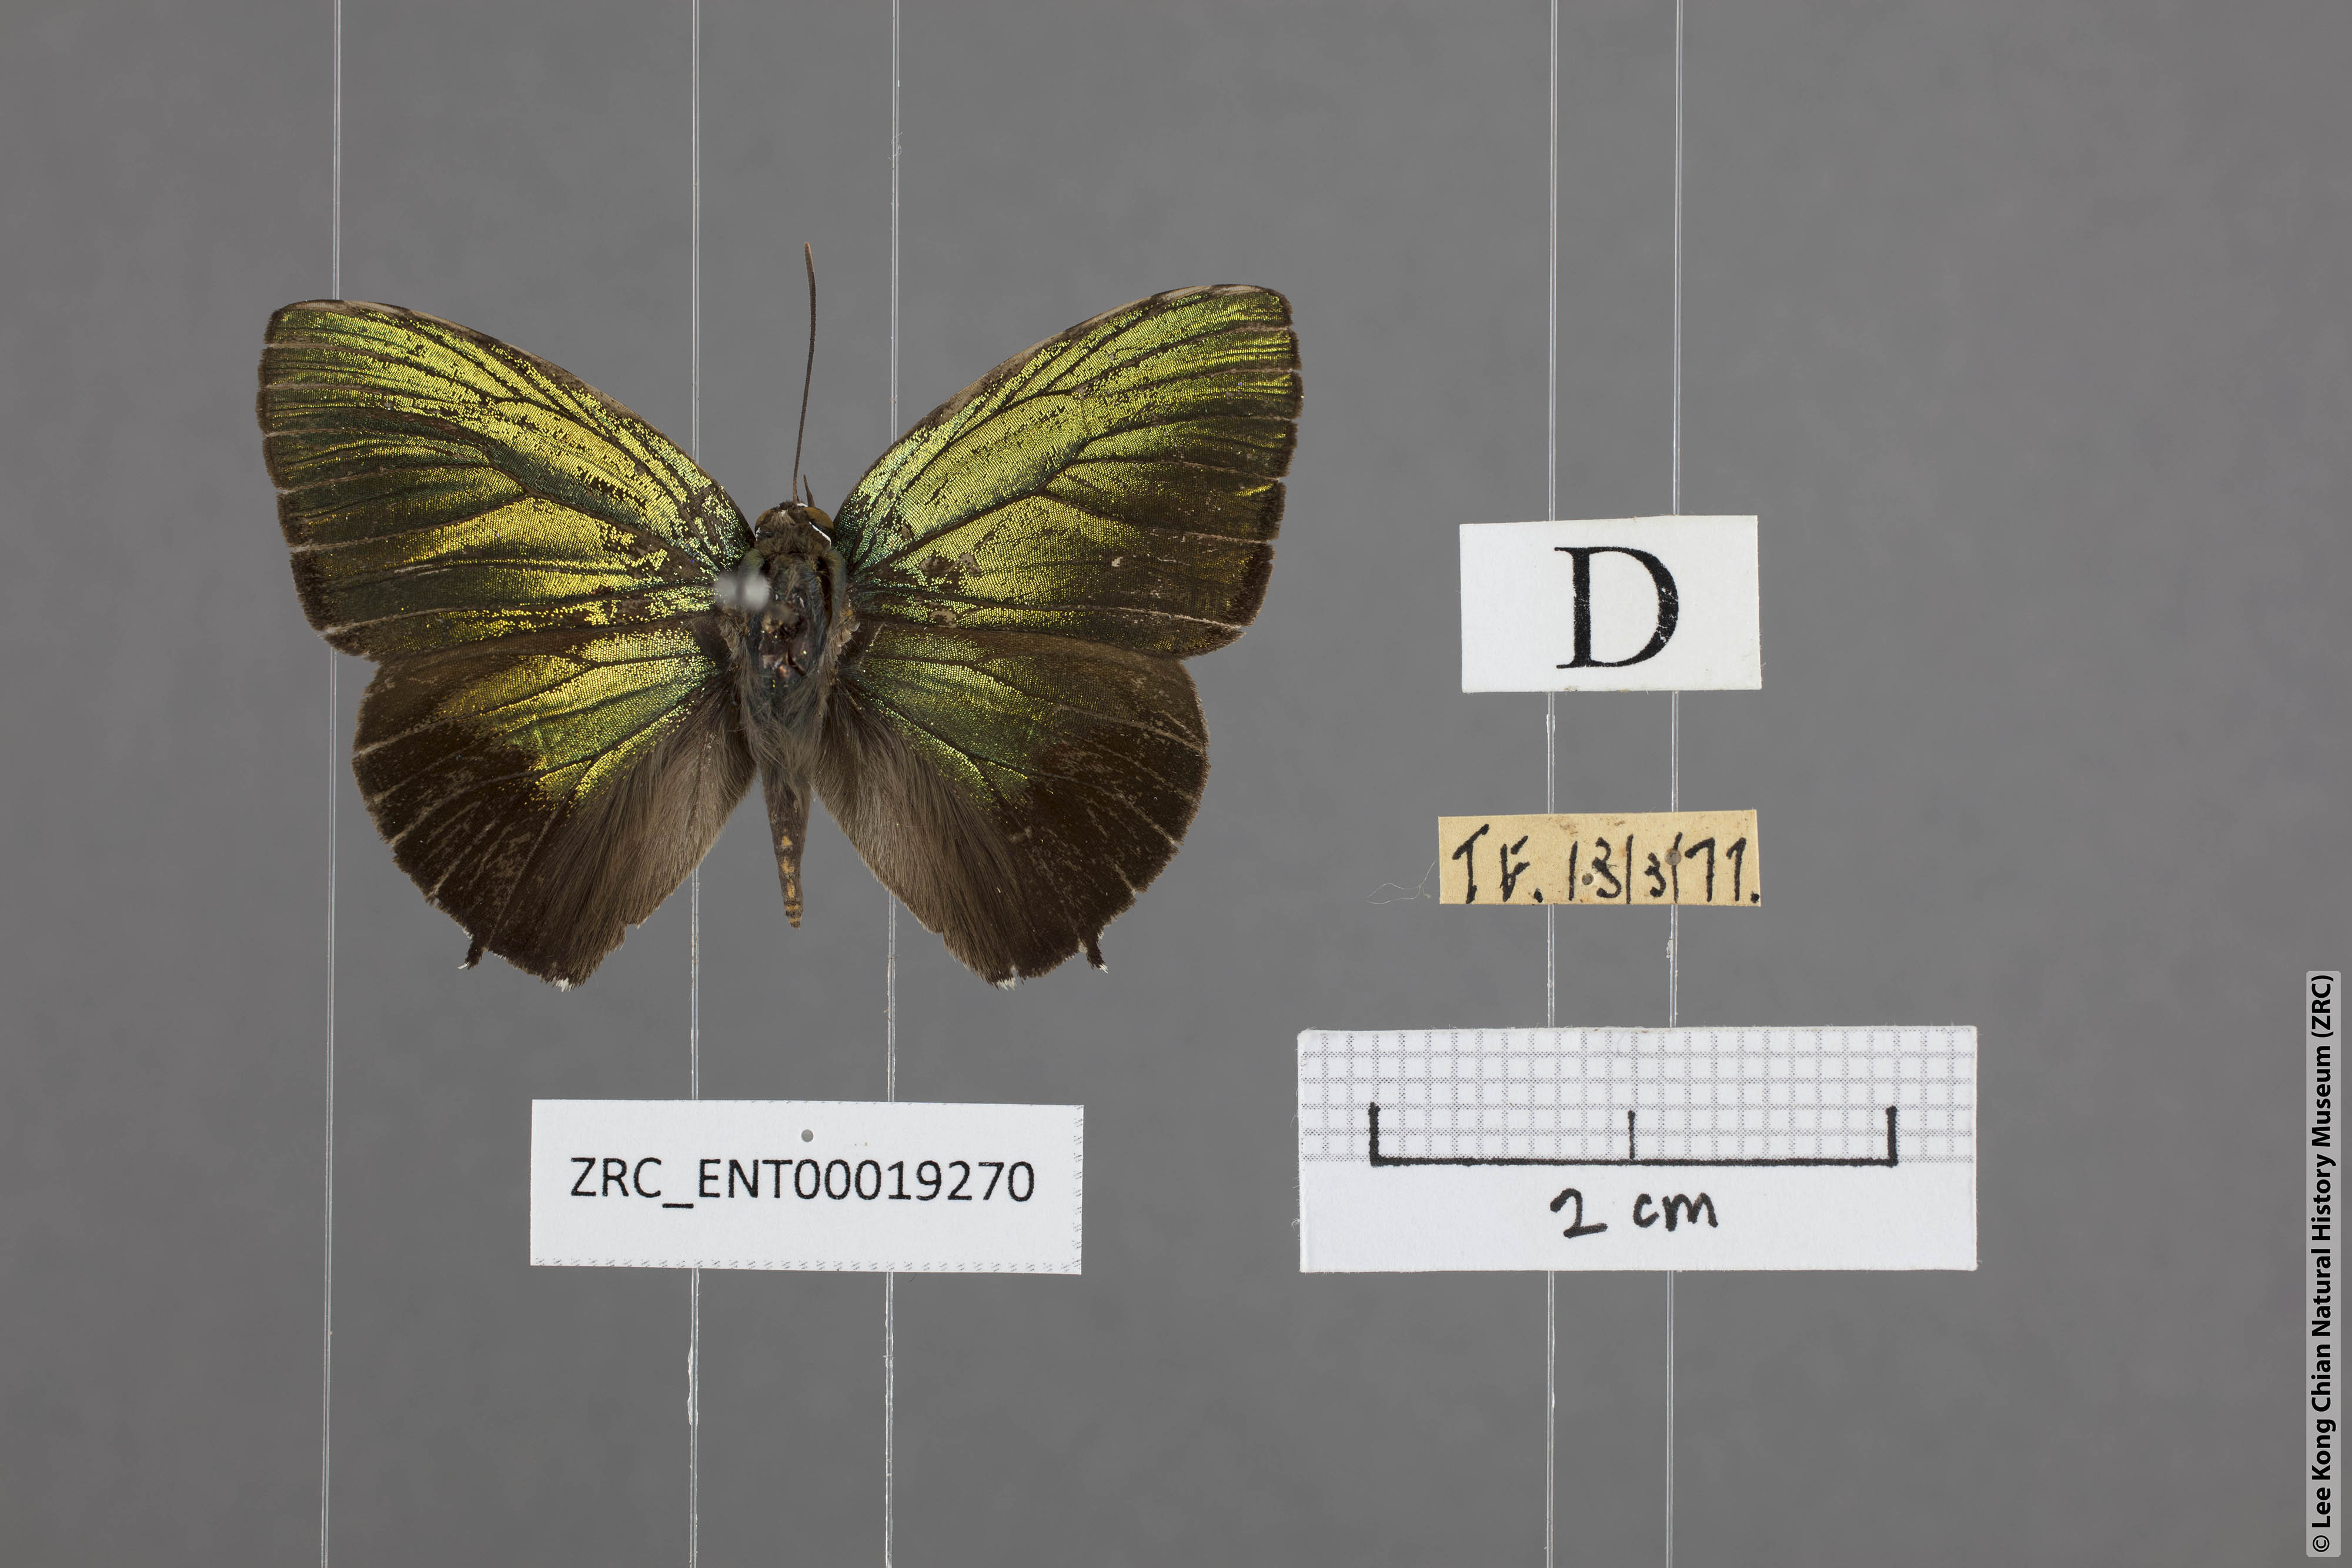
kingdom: Animalia
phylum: Arthropoda
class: Insecta
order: Lepidoptera
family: Lycaenidae
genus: Arhopala
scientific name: Arhopala aurea
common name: Long-celled oakblue
